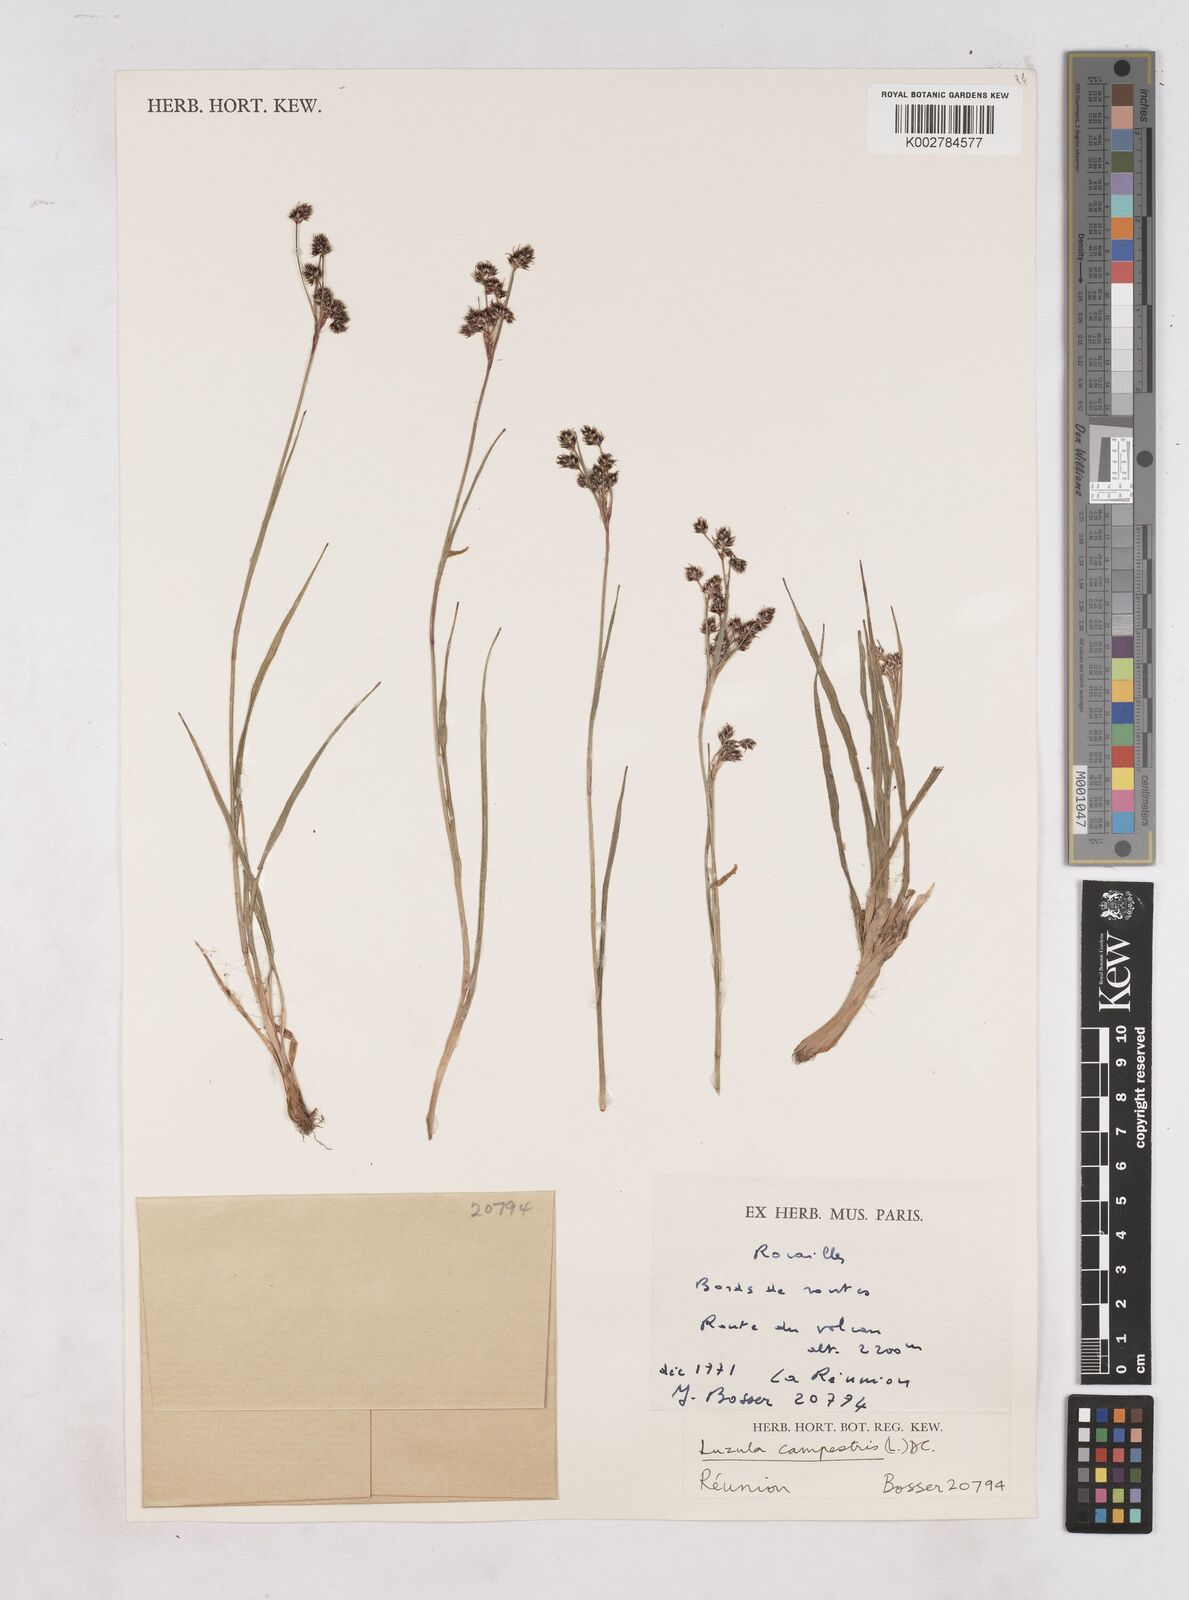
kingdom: Plantae
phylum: Tracheophyta
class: Liliopsida
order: Poales
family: Juncaceae
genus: Luzula
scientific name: Luzula campestris
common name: Field wood-rush
